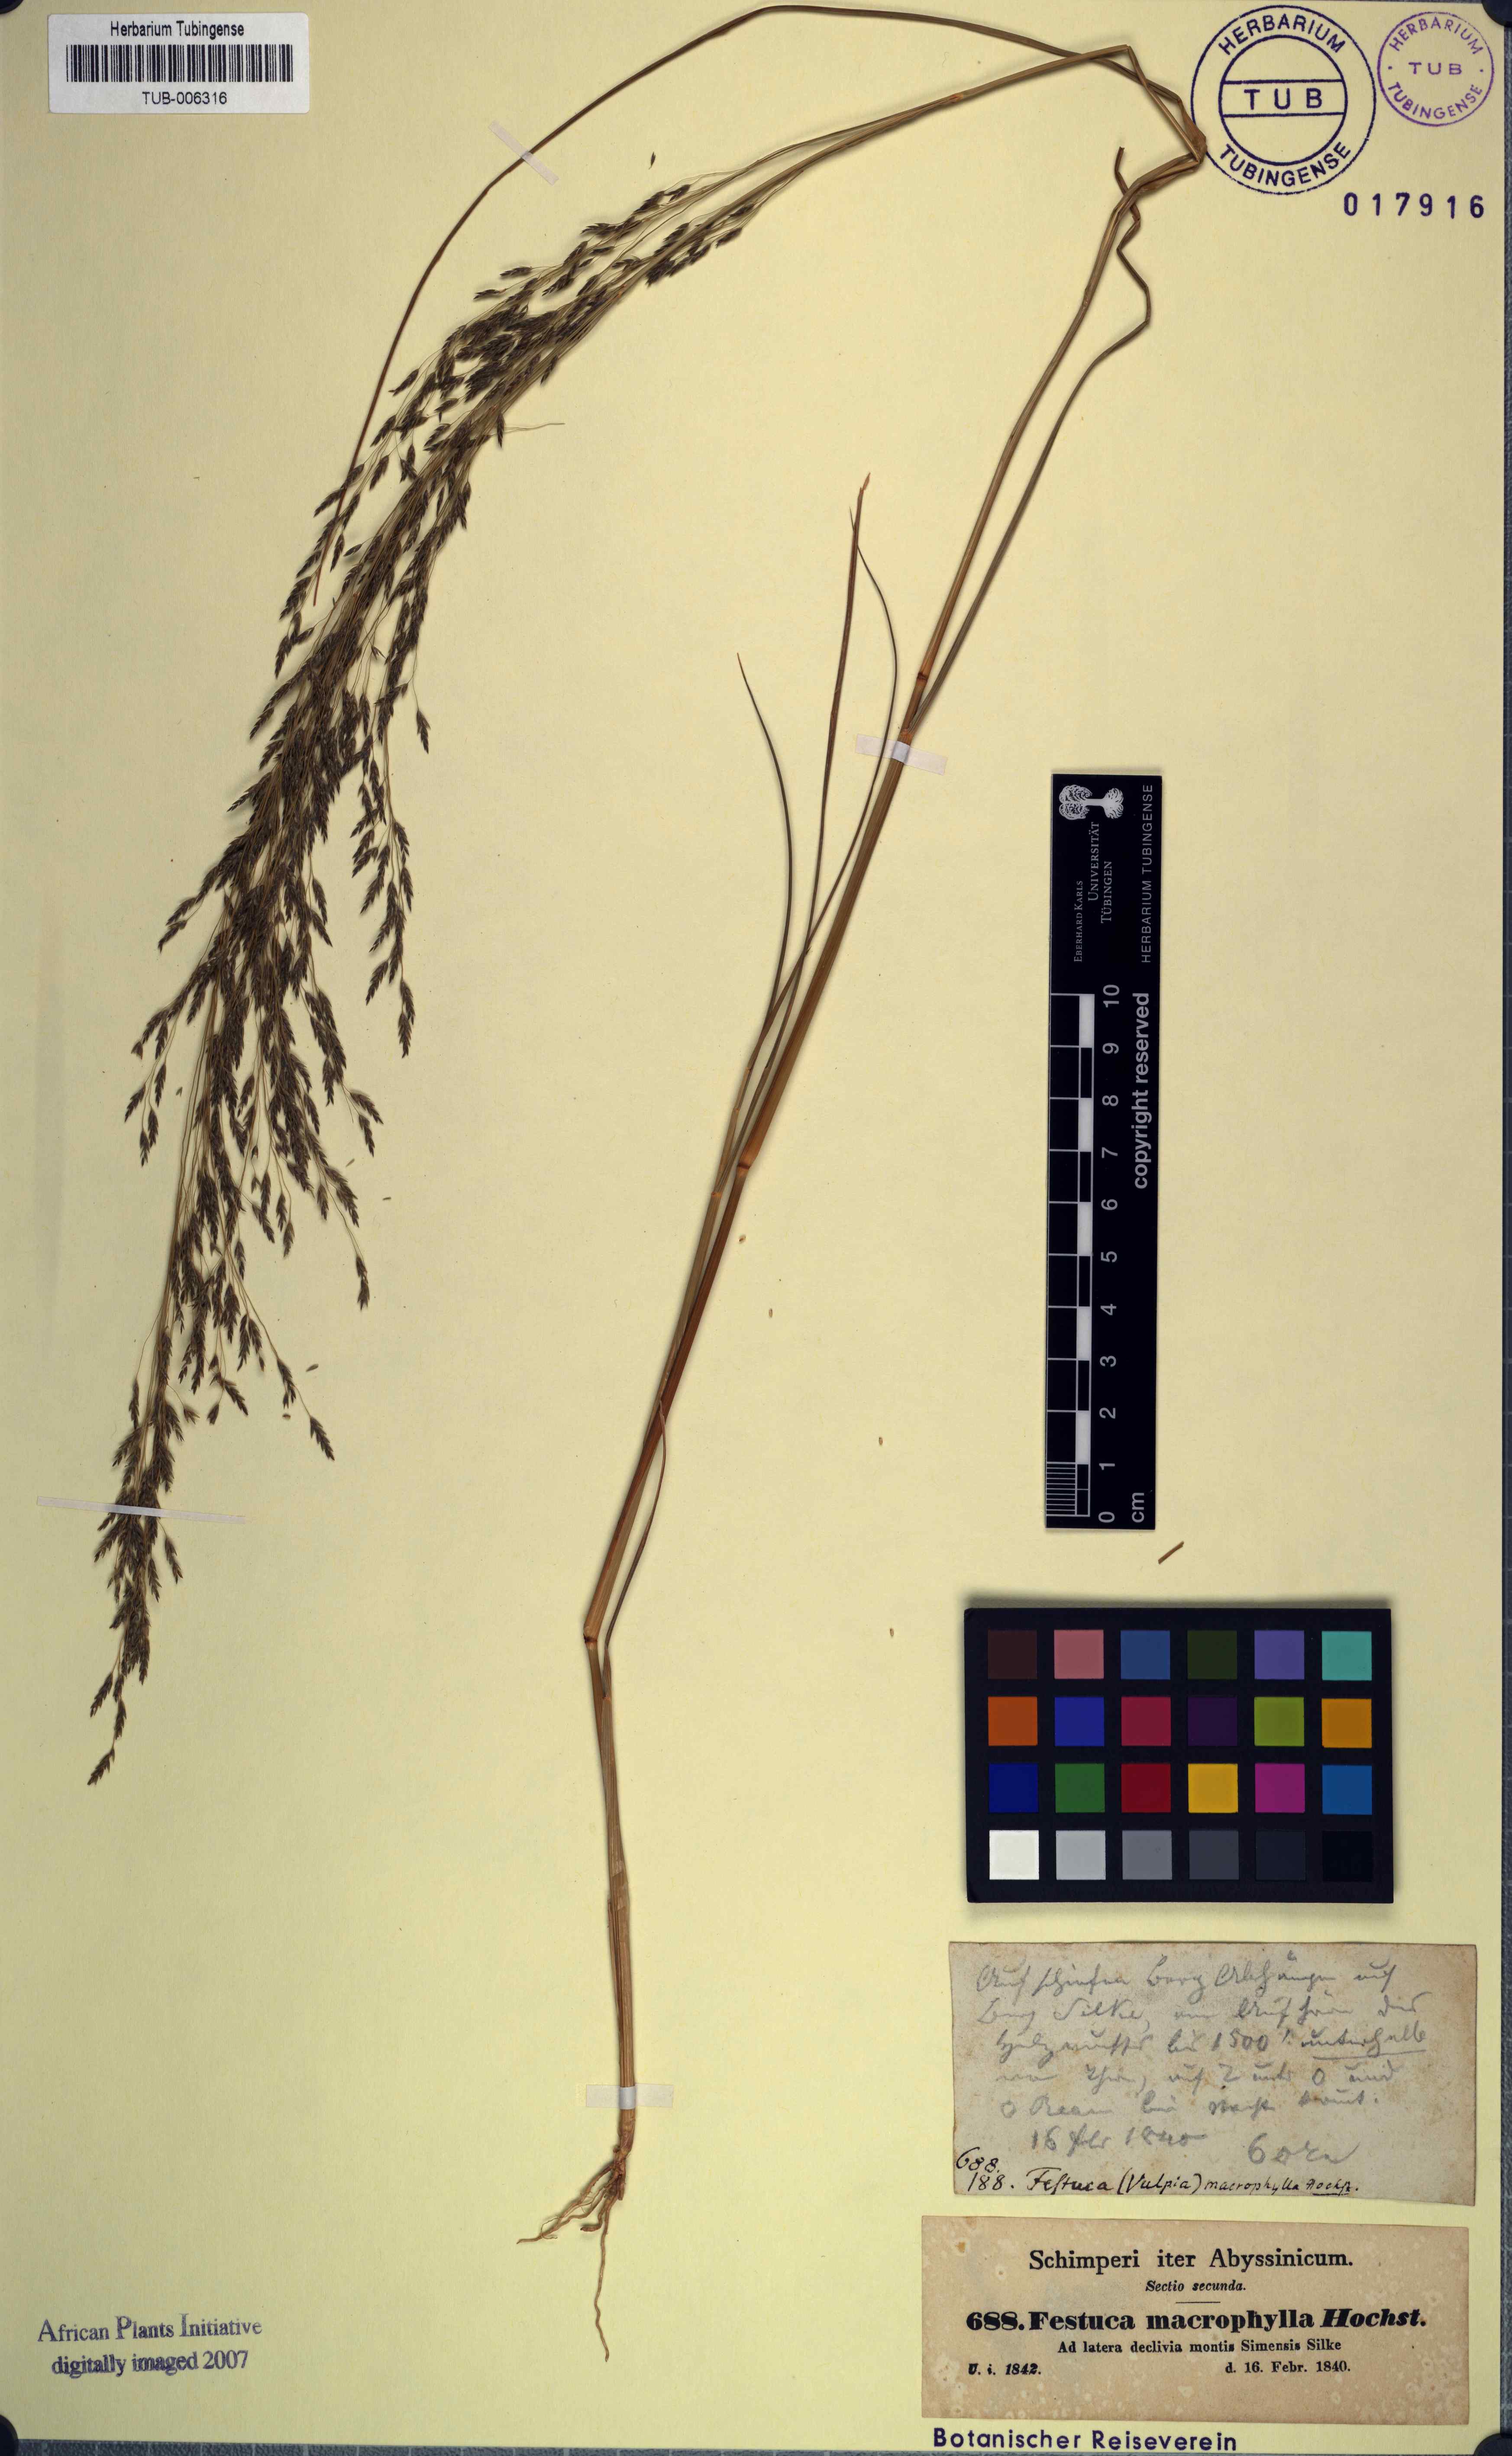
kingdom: Plantae
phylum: Tracheophyta
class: Liliopsida
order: Poales
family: Poaceae
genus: Festuca
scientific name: Festuca macrophylla
